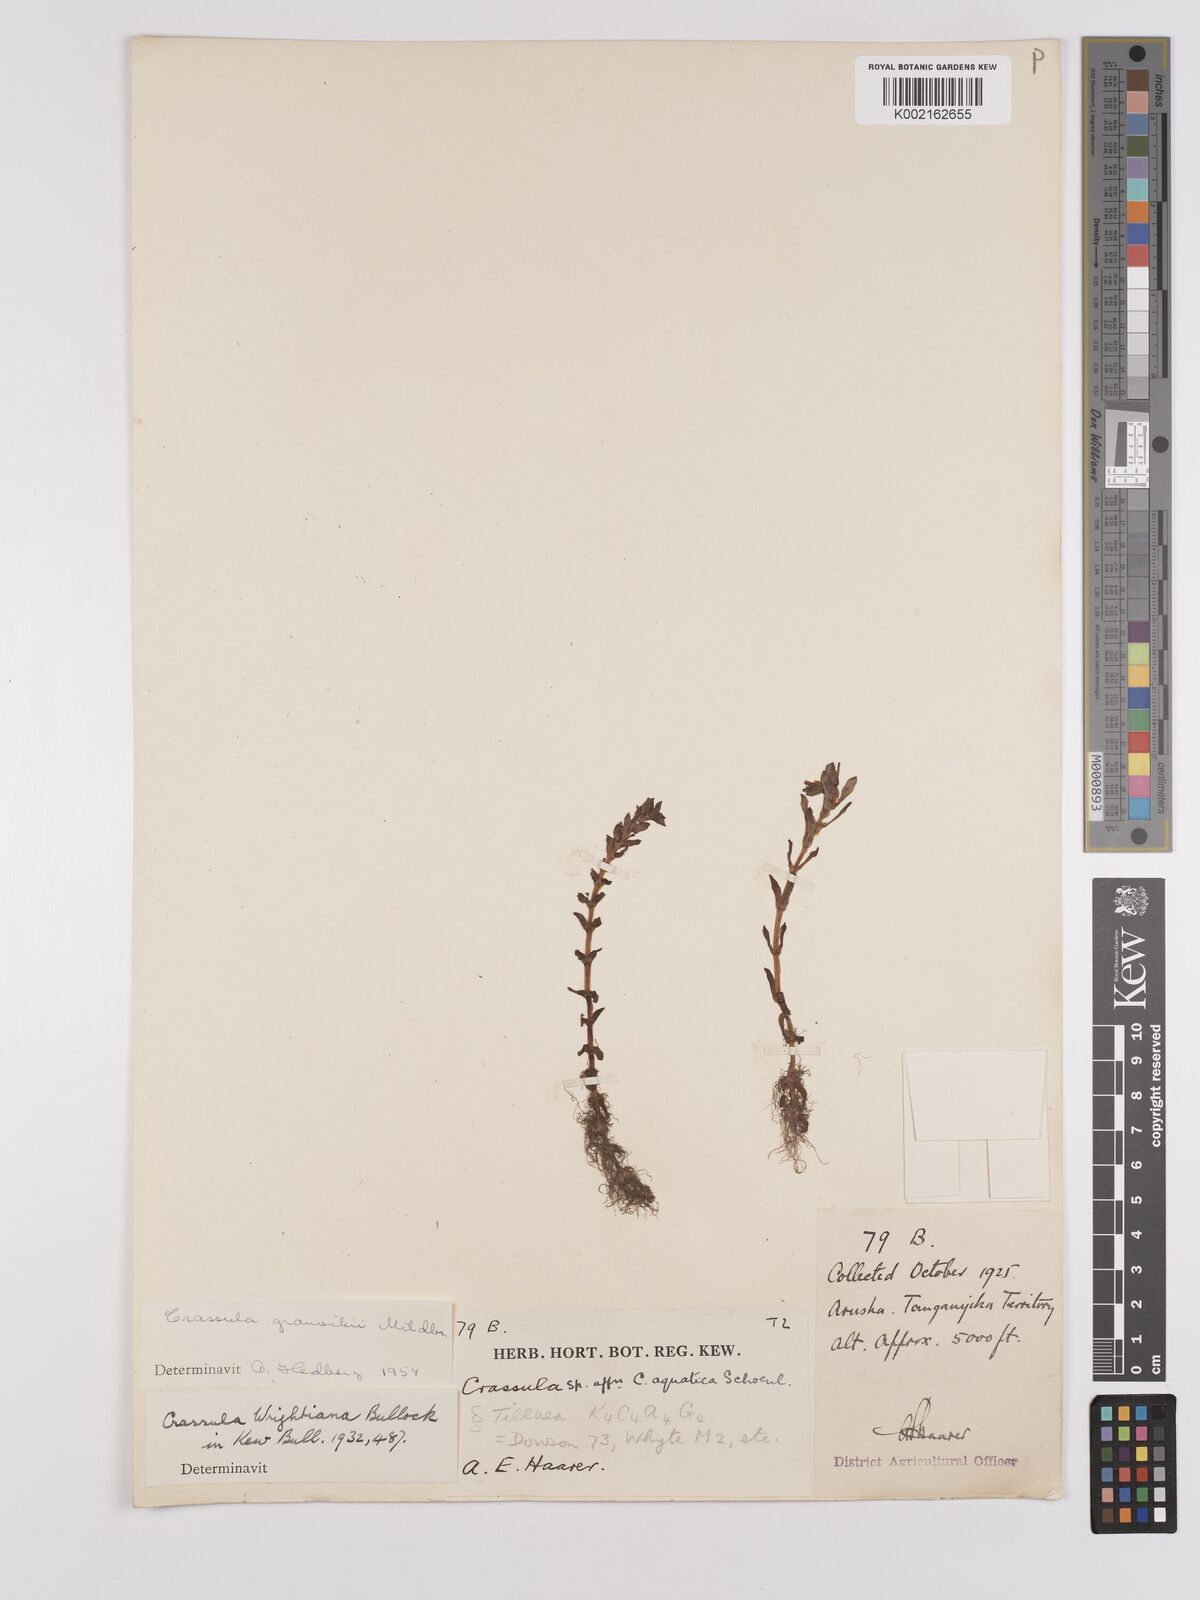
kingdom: Plantae
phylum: Tracheophyta
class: Magnoliopsida
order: Saxifragales
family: Crassulaceae
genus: Crassula
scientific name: Crassula granvikii
